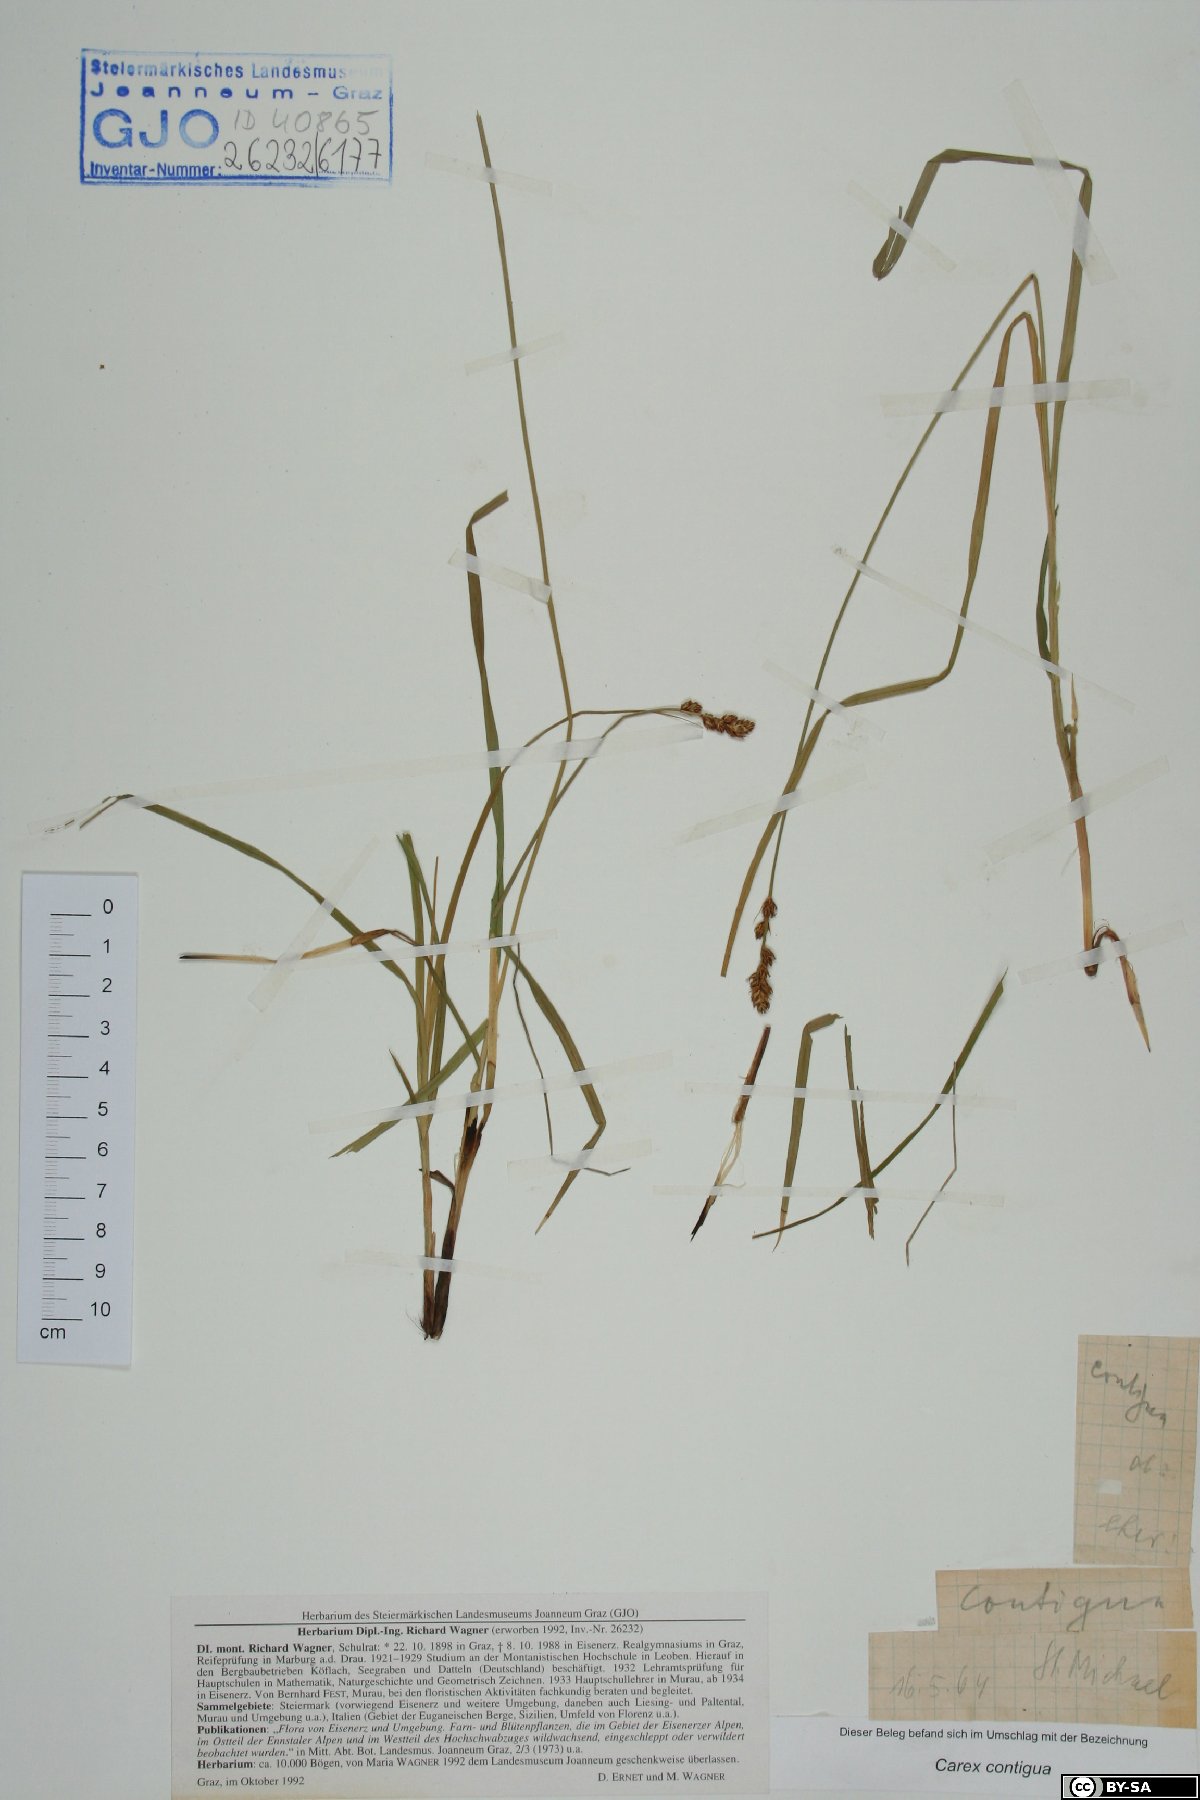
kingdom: Plantae
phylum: Tracheophyta
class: Liliopsida
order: Poales
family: Cyperaceae
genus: Carex
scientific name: Carex spicata
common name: Spiked sedge
